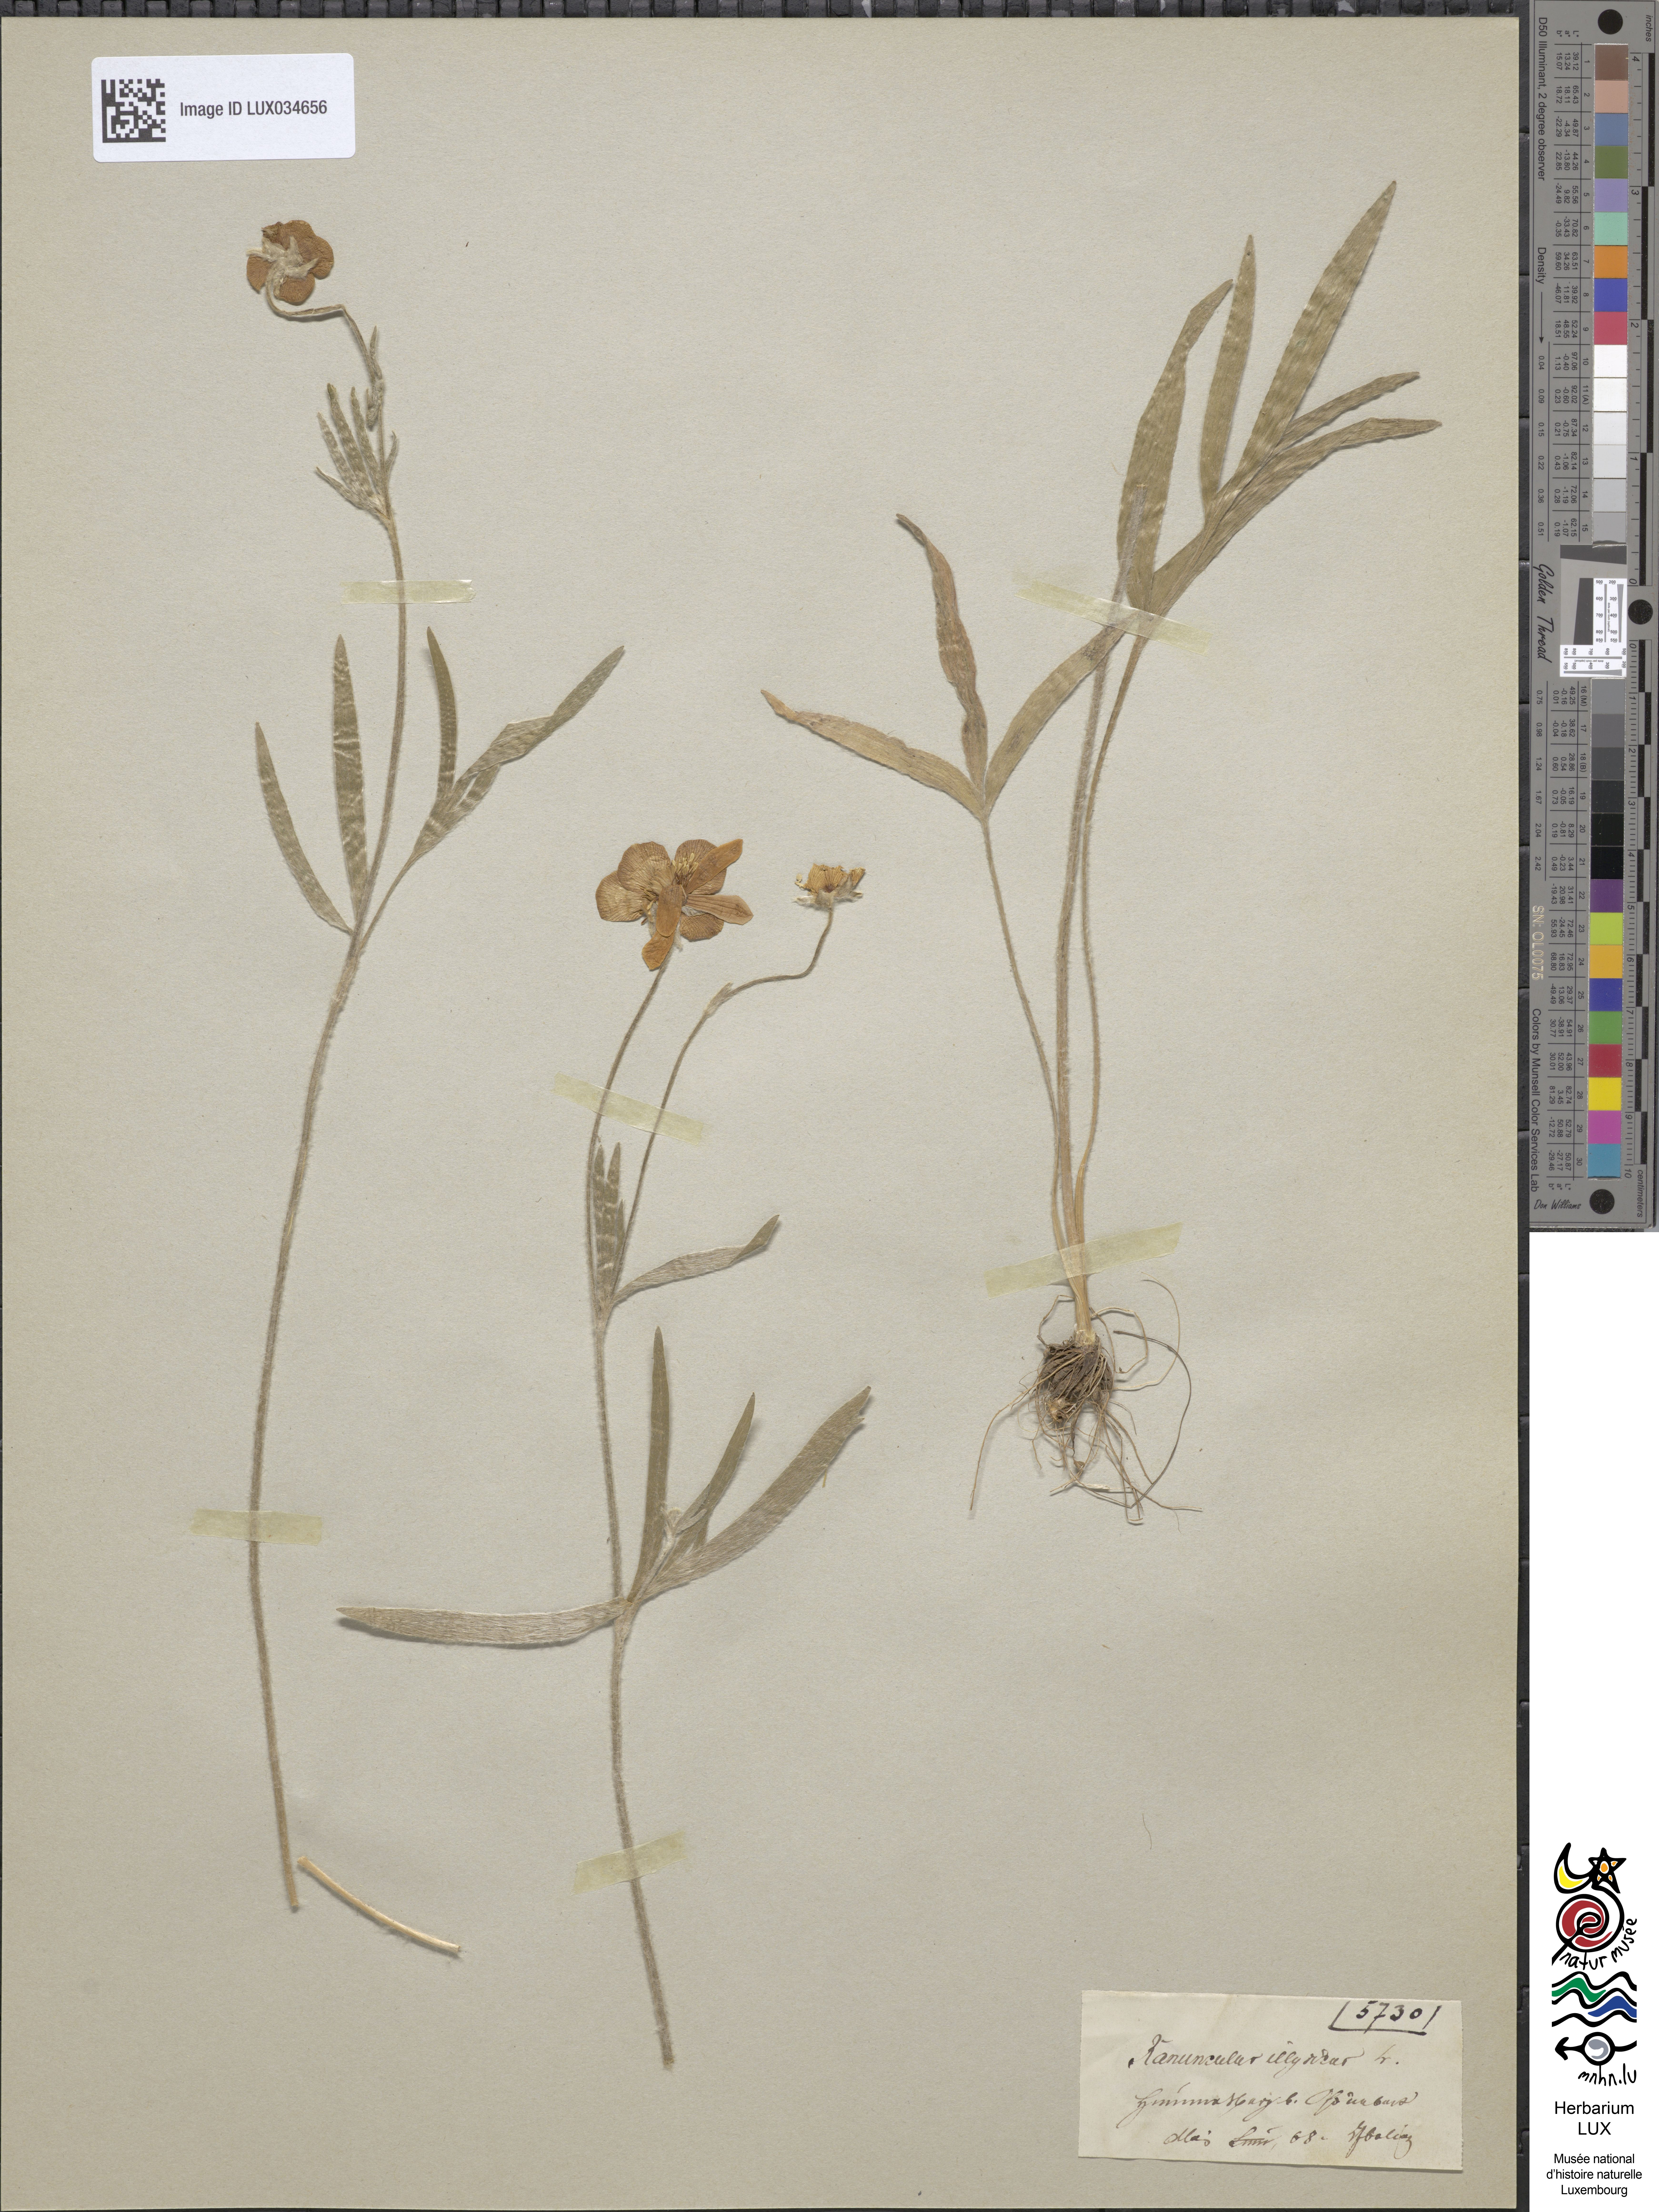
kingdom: Plantae
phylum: Tracheophyta
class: Magnoliopsida
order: Ranunculales
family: Ranunculaceae
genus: Ranunculus
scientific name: Ranunculus illyricus
